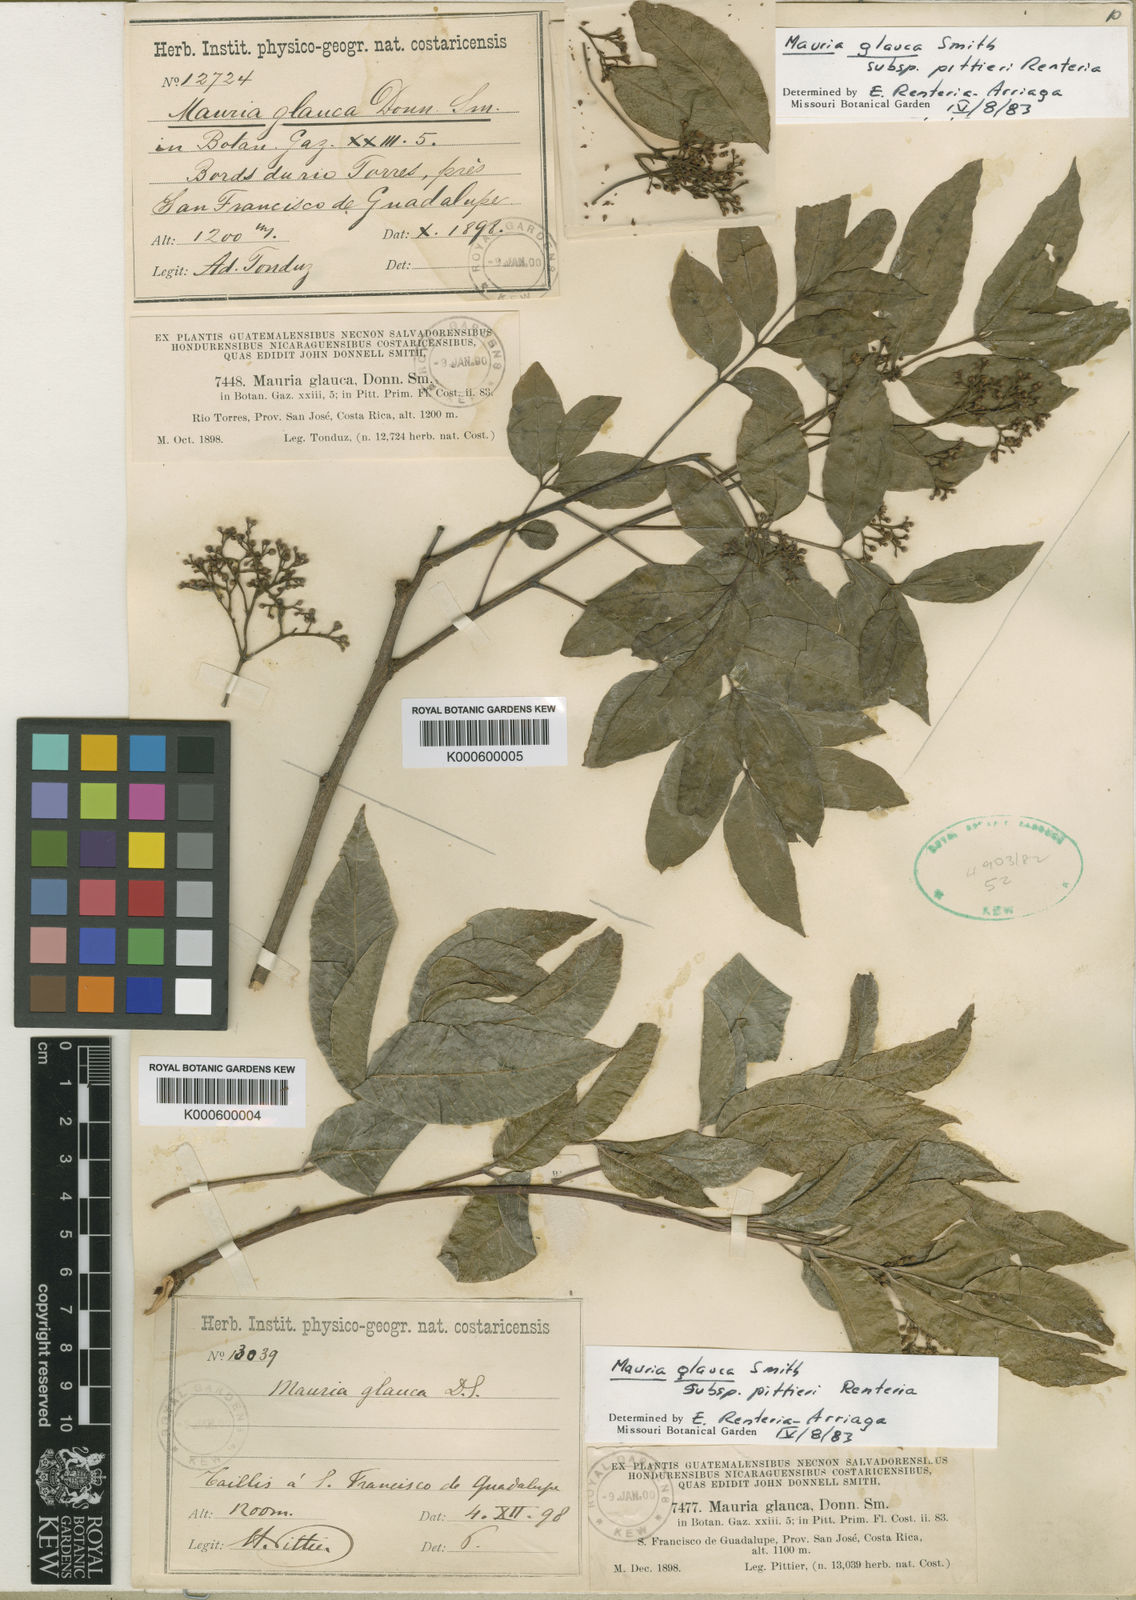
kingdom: Plantae
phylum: Tracheophyta
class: Magnoliopsida
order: Sapindales
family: Anacardiaceae
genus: Mauria
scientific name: Mauria heterophylla
